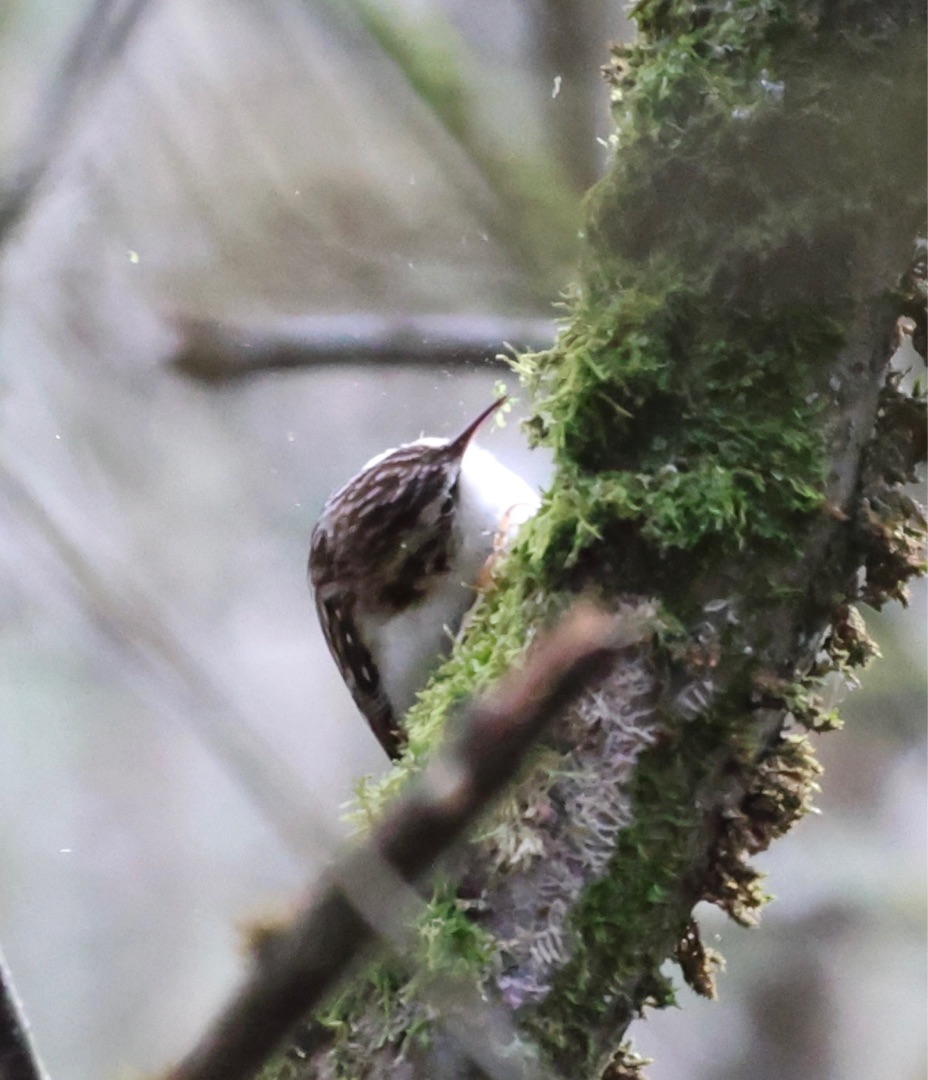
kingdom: Animalia
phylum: Chordata
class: Aves
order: Passeriformes
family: Certhiidae
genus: Certhia
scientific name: Certhia familiaris
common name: Træløber
